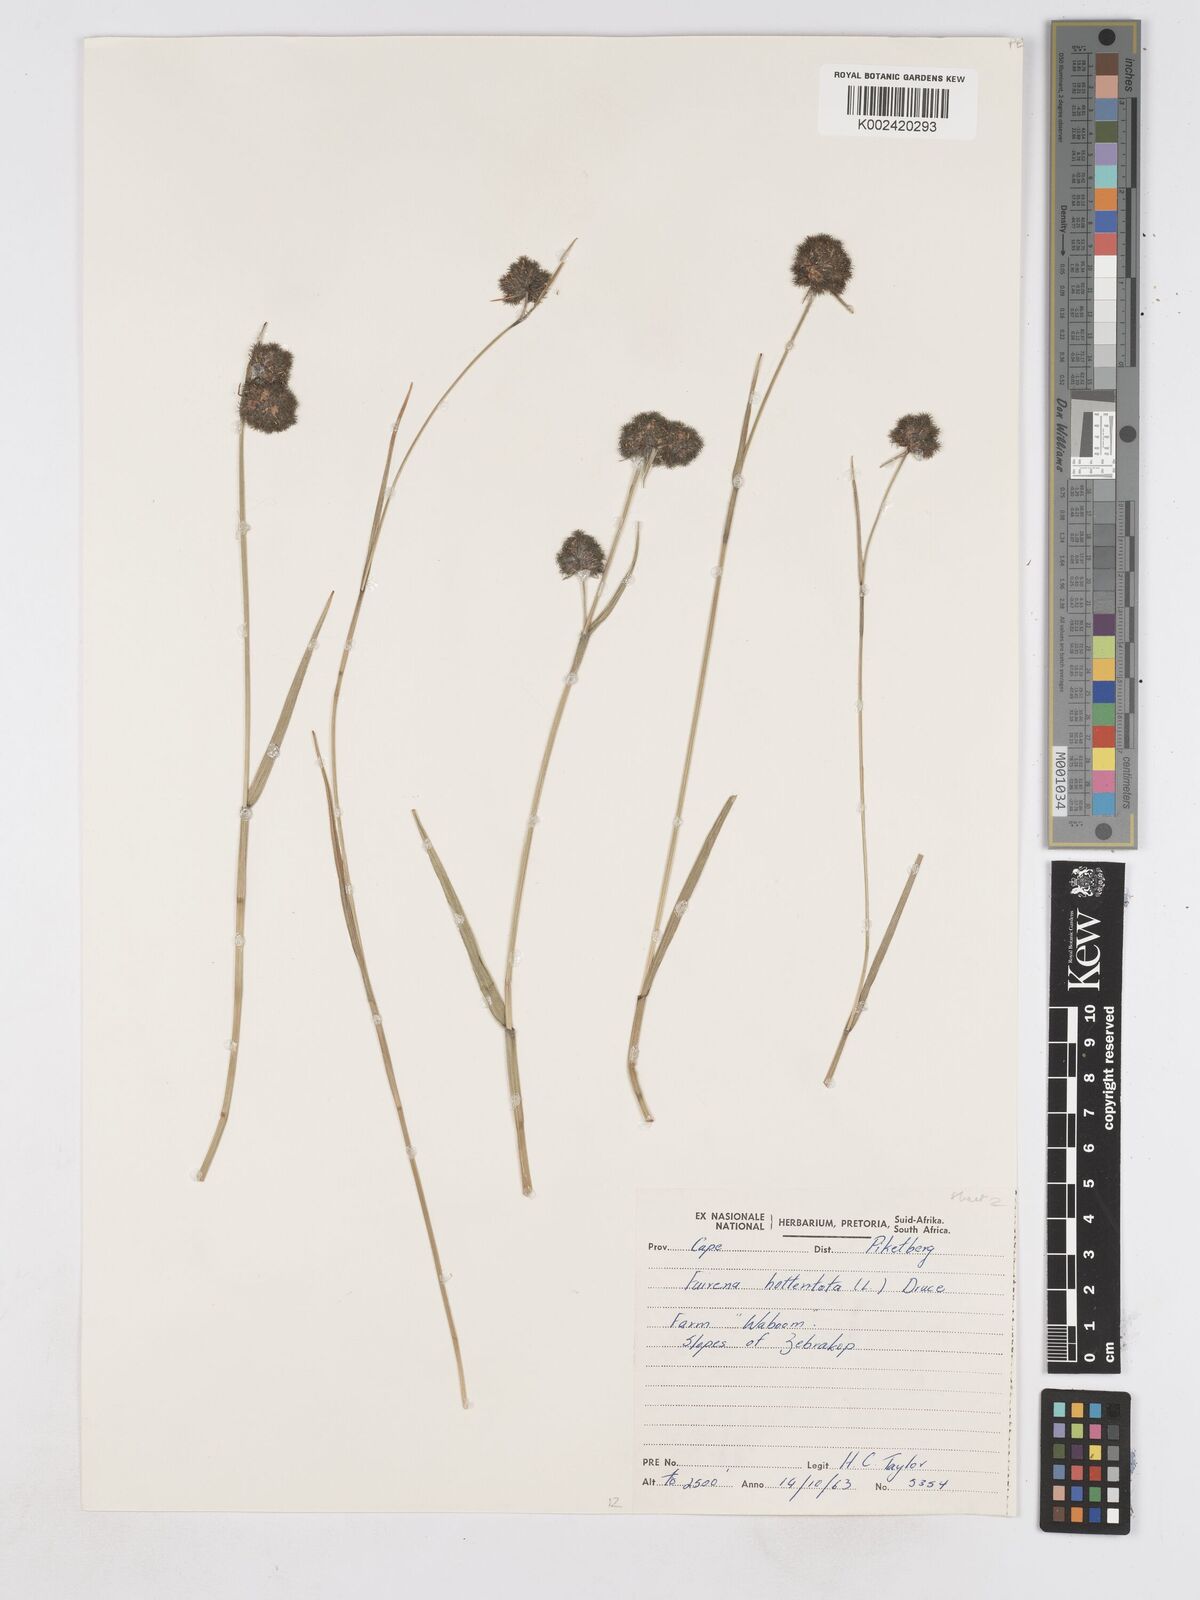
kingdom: Plantae
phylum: Tracheophyta
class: Liliopsida
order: Poales
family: Cyperaceae
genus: Fuirena
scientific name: Fuirena hirsuta
